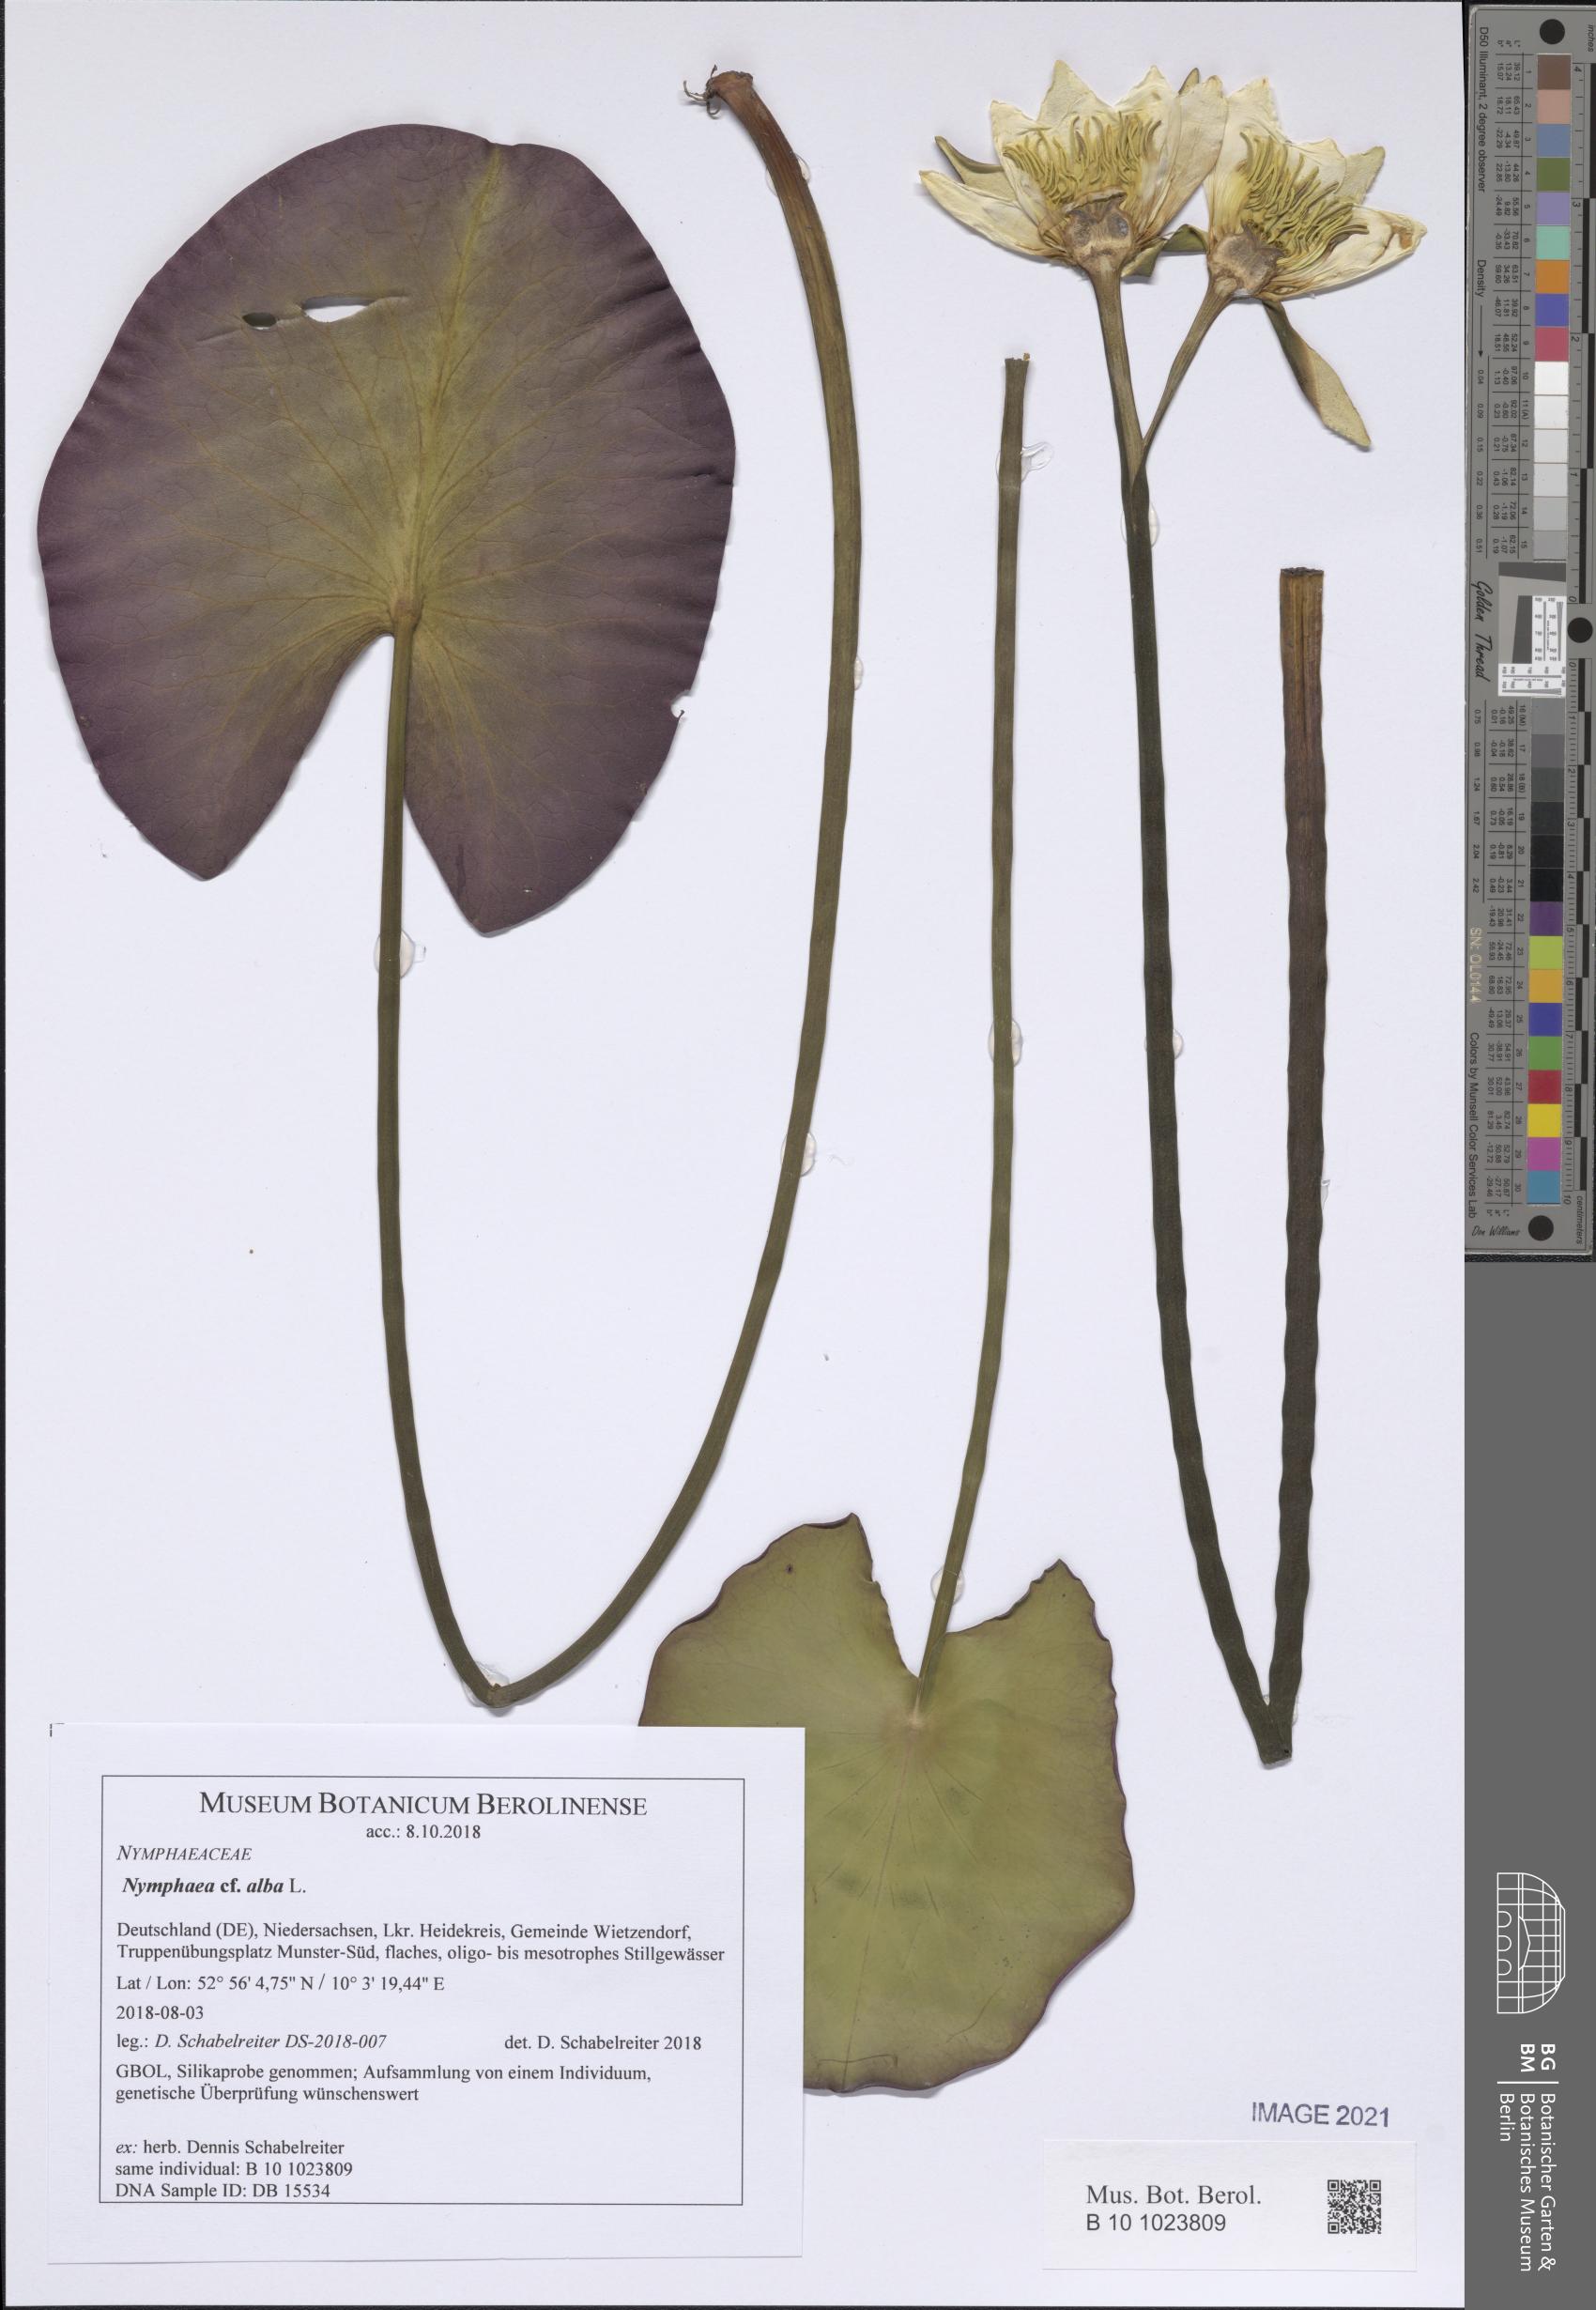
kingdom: Plantae
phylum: Tracheophyta
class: Magnoliopsida
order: Nymphaeales
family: Nymphaeaceae
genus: Nymphaea
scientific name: Nymphaea alba
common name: White water-lily
